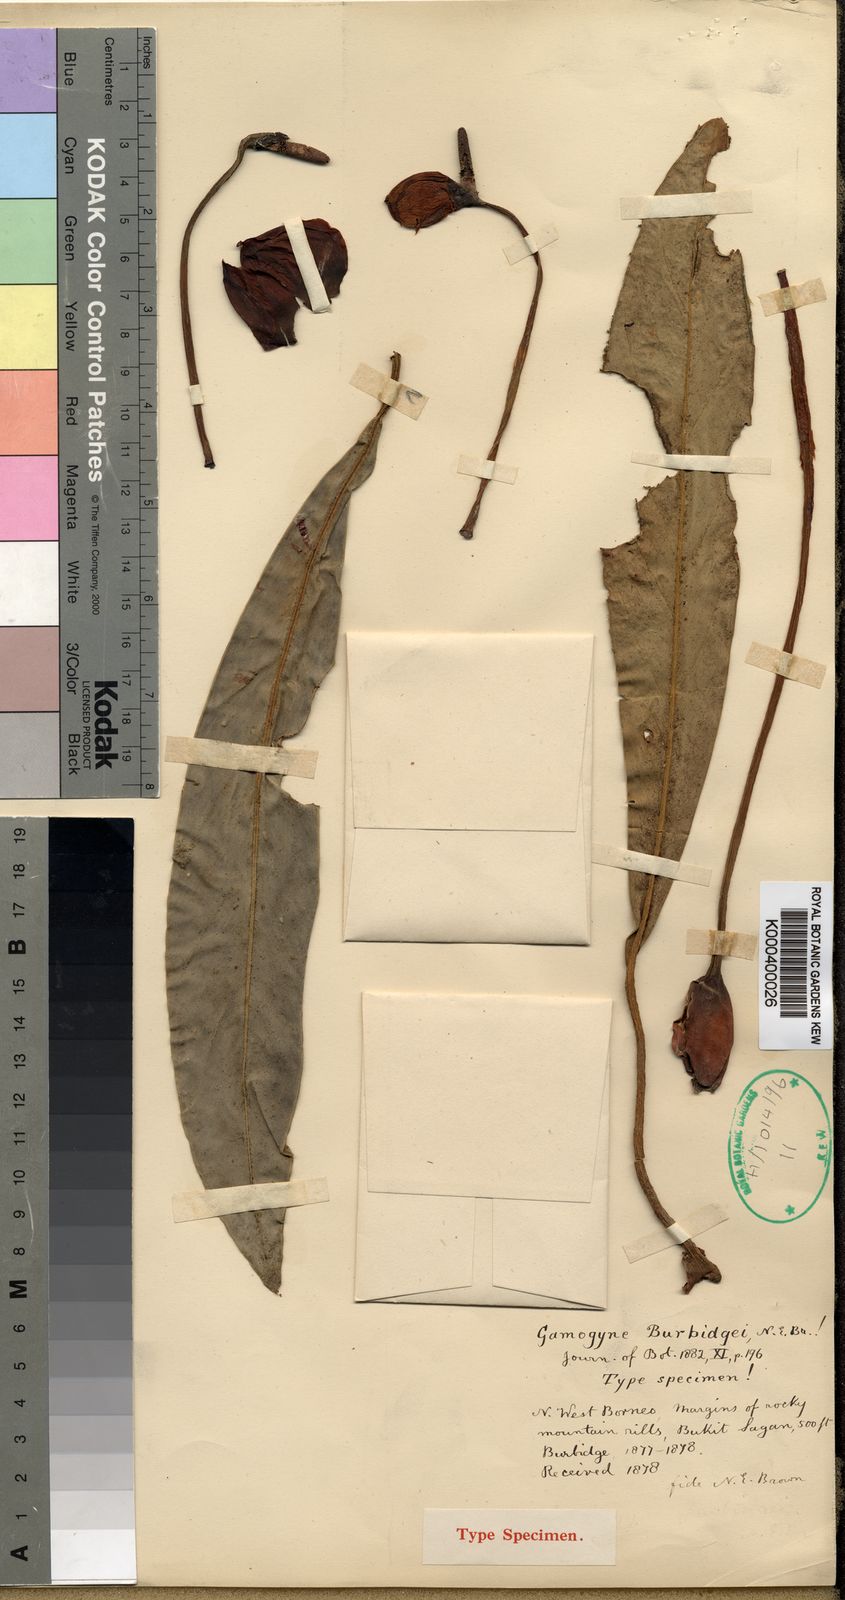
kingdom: Plantae
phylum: Tracheophyta
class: Liliopsida
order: Alismatales
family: Araceae
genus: Gamogyne
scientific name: Gamogyne burbidgei
